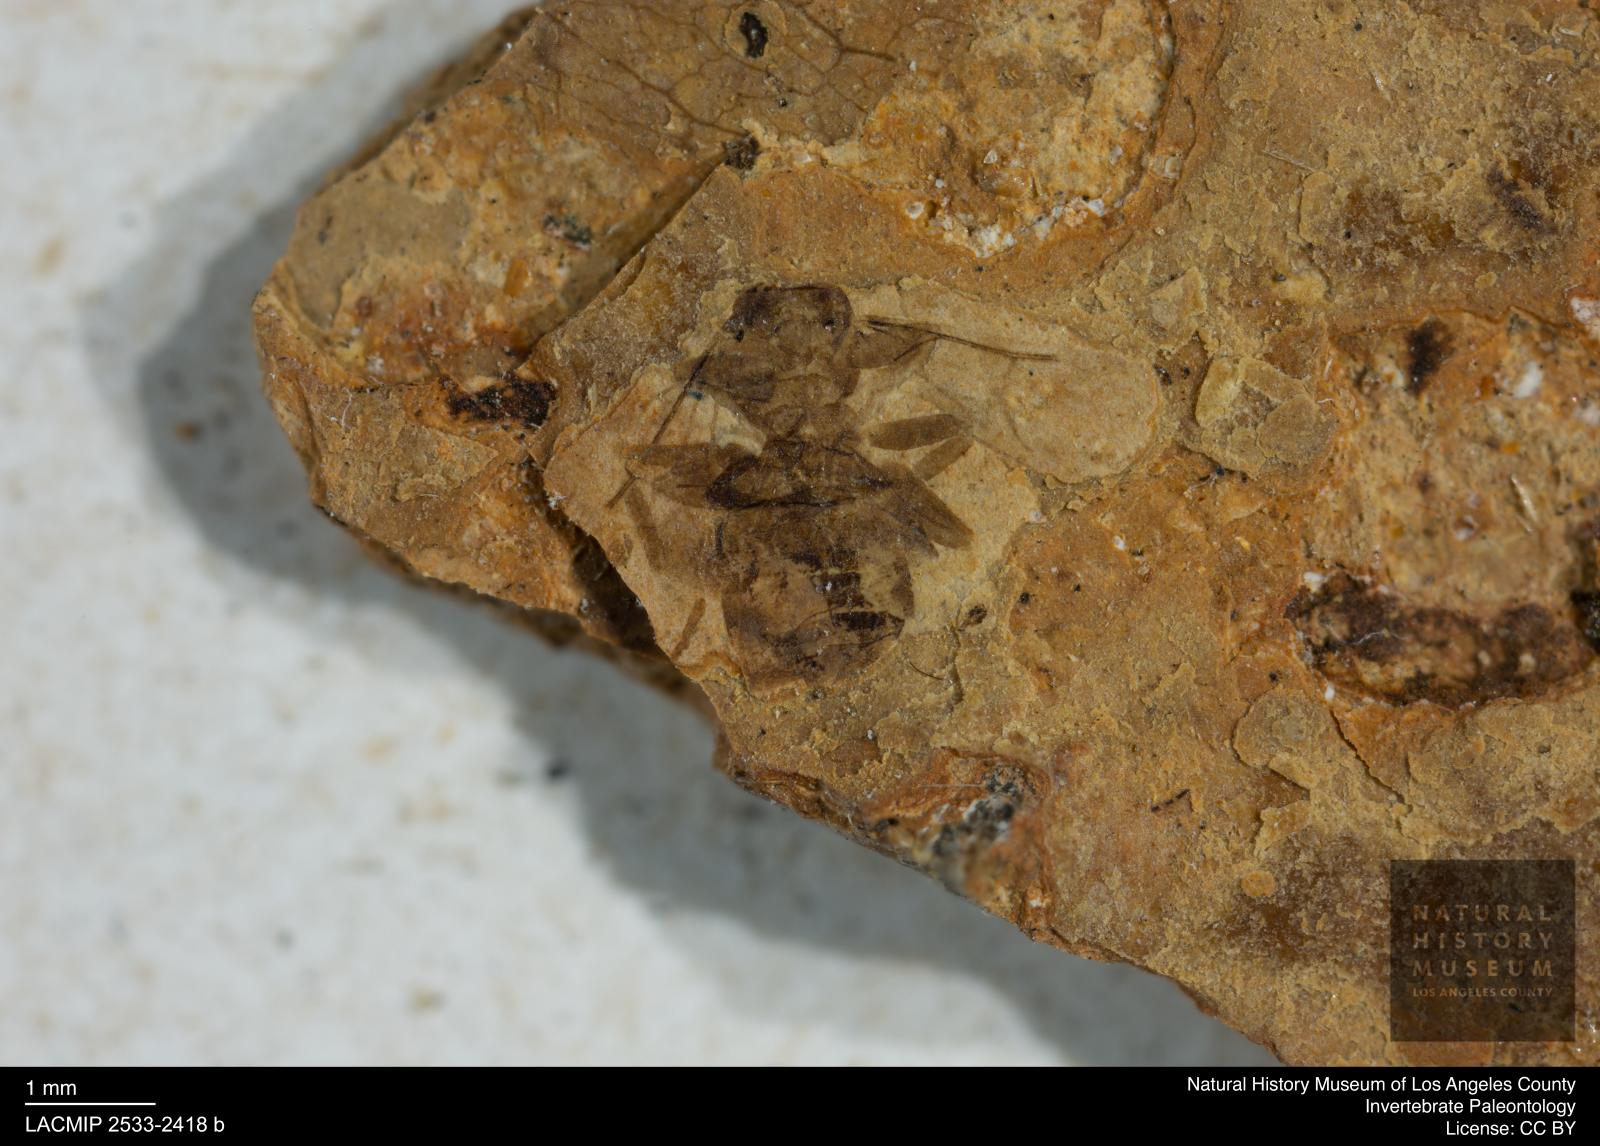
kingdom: Animalia
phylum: Arthropoda
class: Insecta
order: Hymenoptera
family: Formicidae
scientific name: Formicidae
